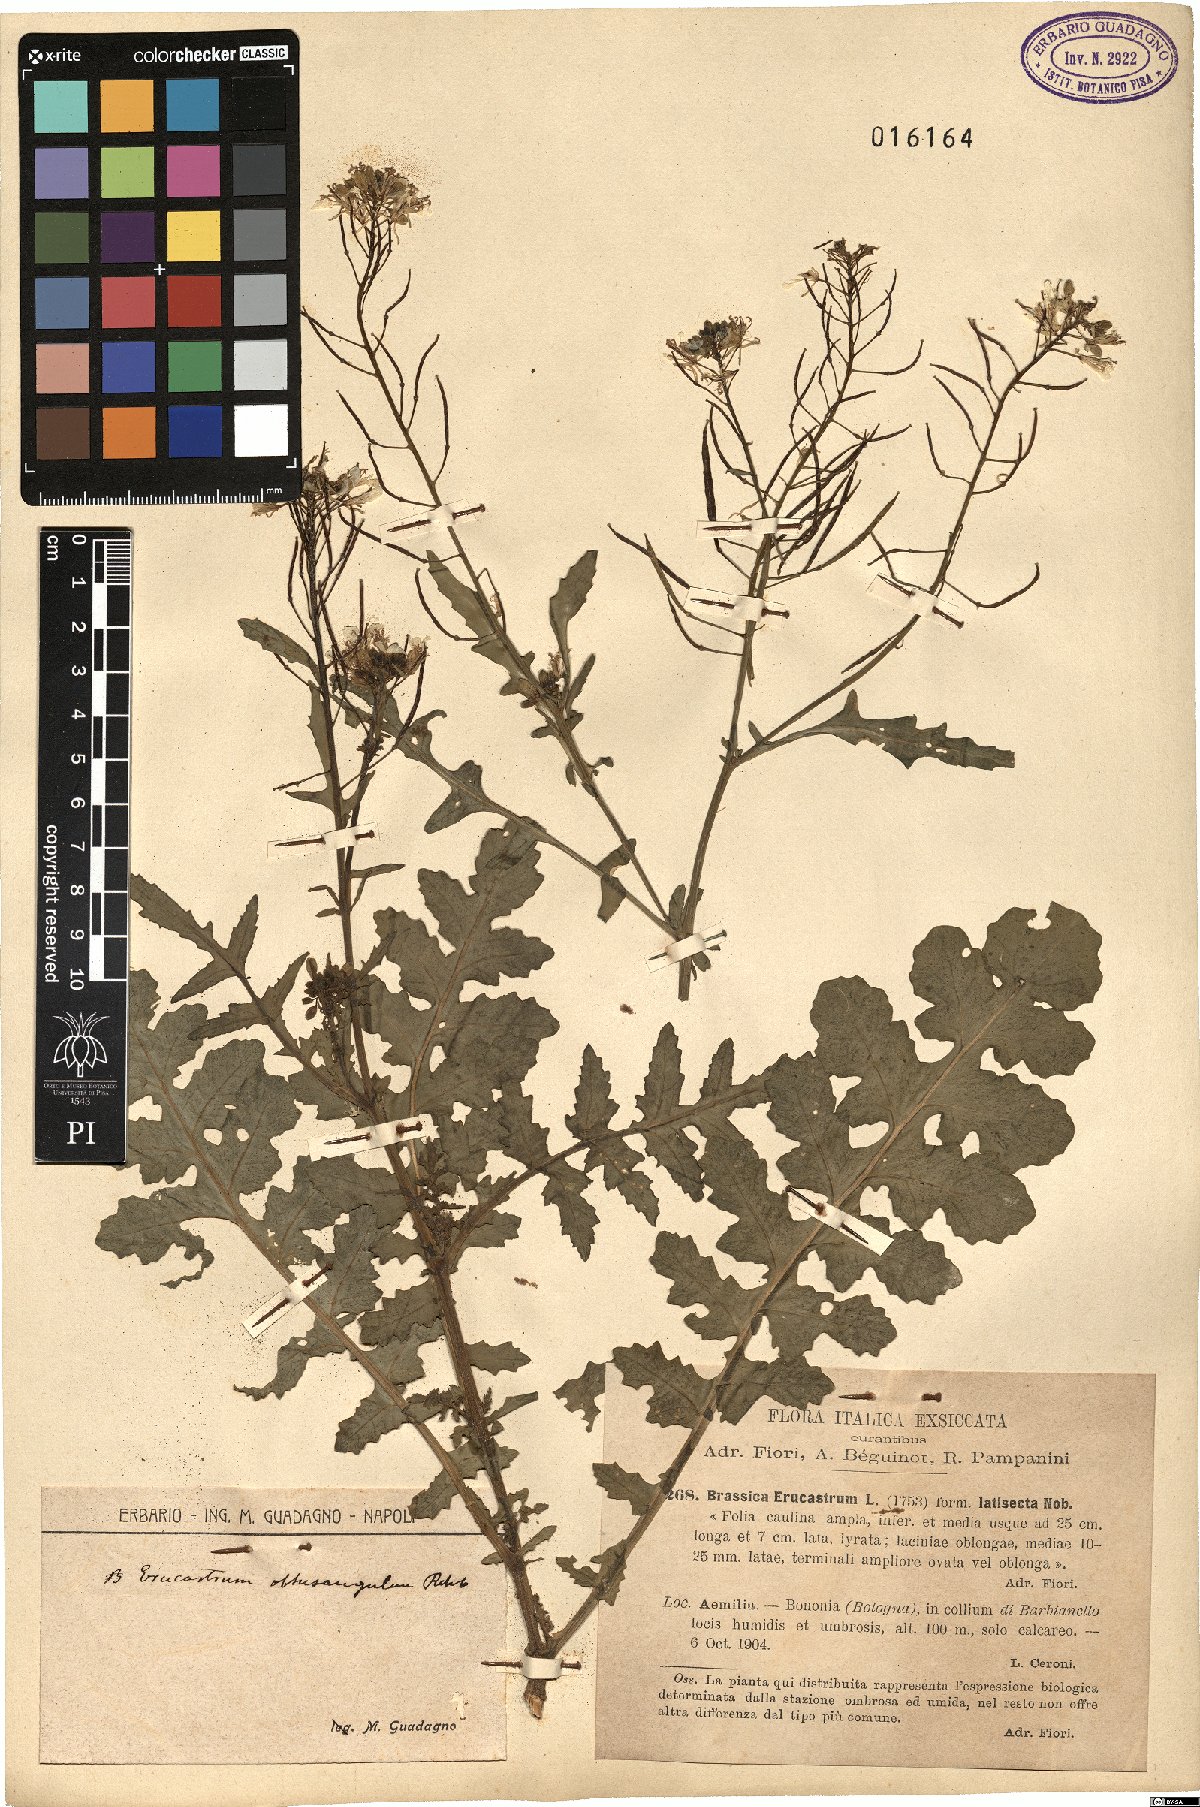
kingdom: Plantae
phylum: Tracheophyta
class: Magnoliopsida
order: Brassicales
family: Brassicaceae
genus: Erucastrum
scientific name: Erucastrum nasturtiifolium
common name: Watercress-leaf rocket
